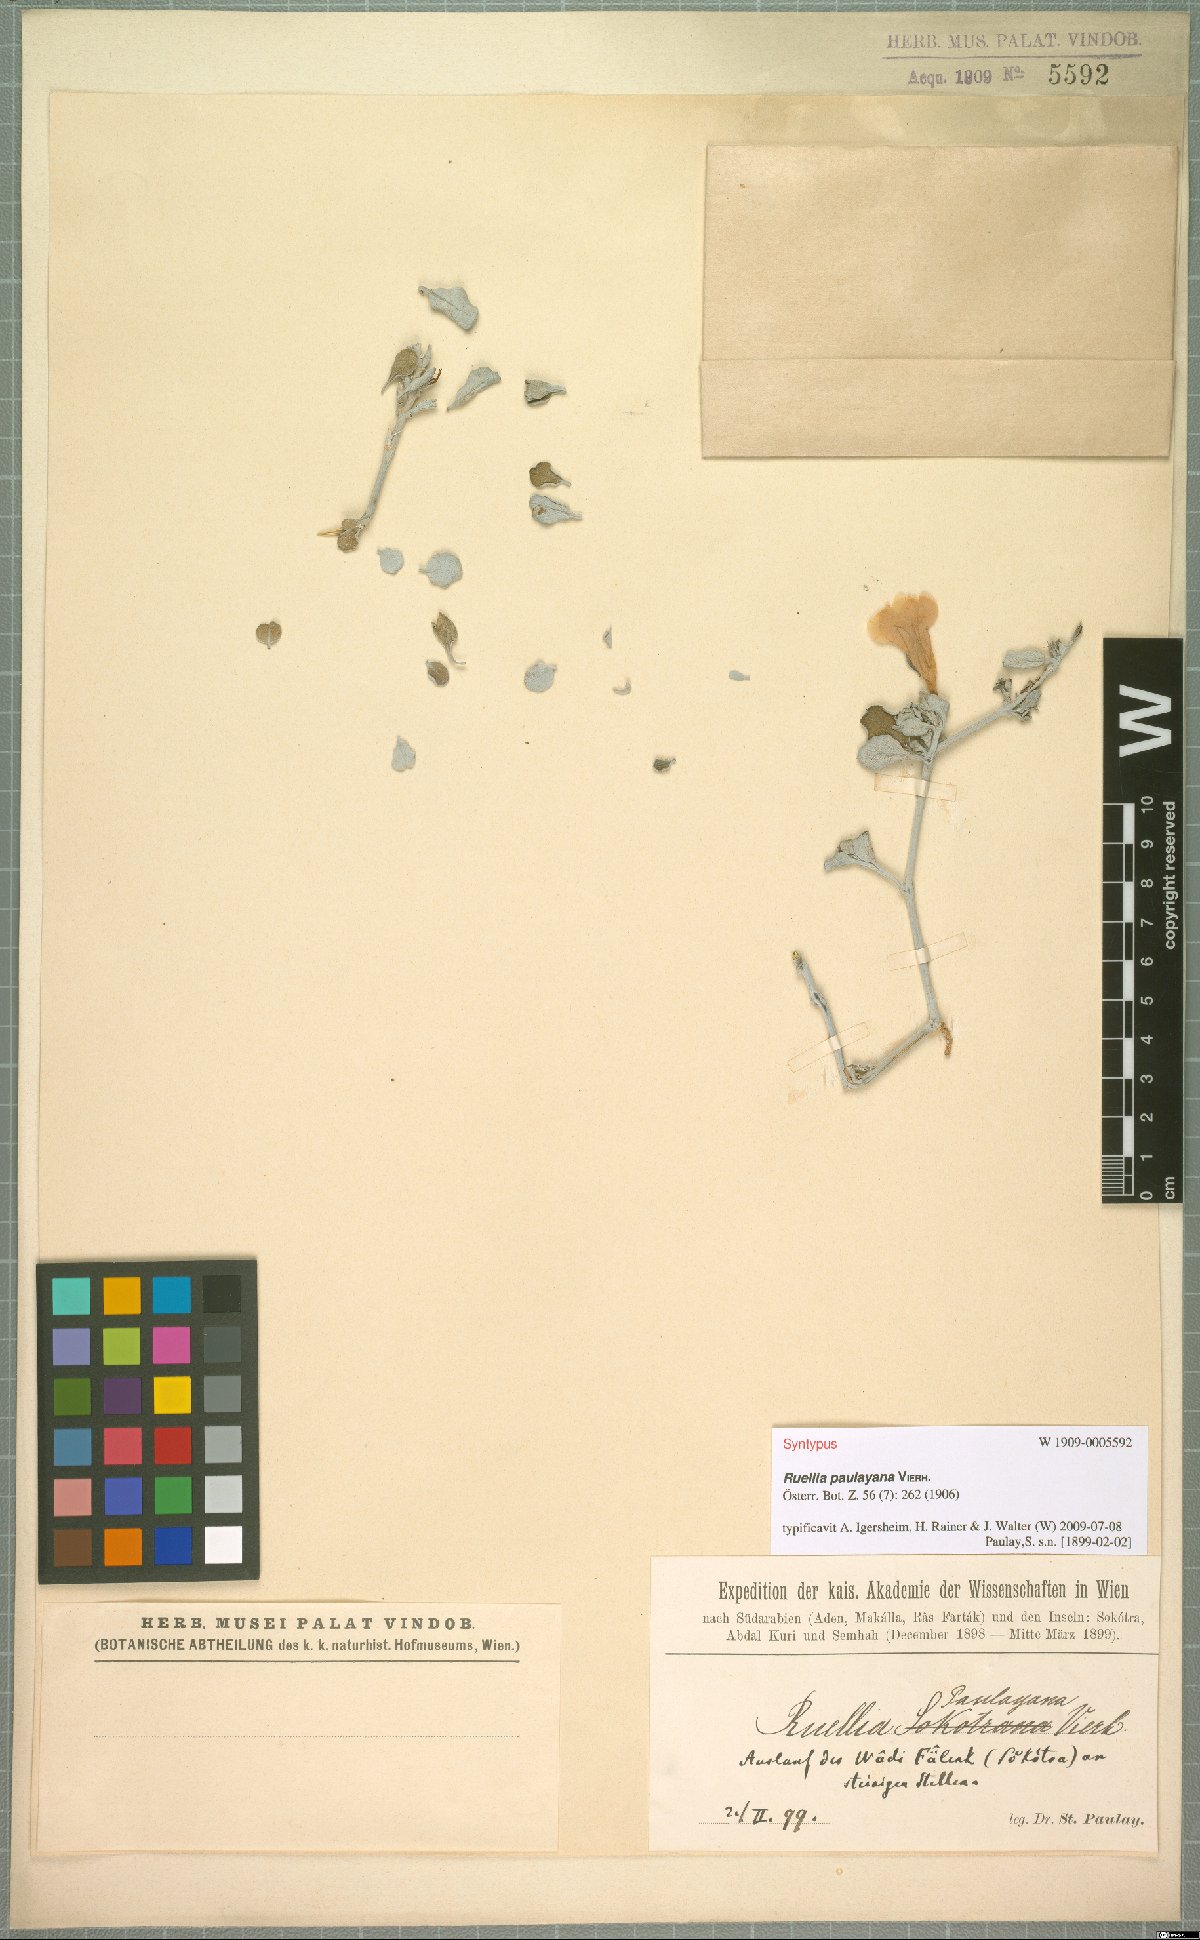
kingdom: Plantae
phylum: Tracheophyta
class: Magnoliopsida
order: Lamiales
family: Acanthaceae
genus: Ruellia
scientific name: Ruellia paulayana
